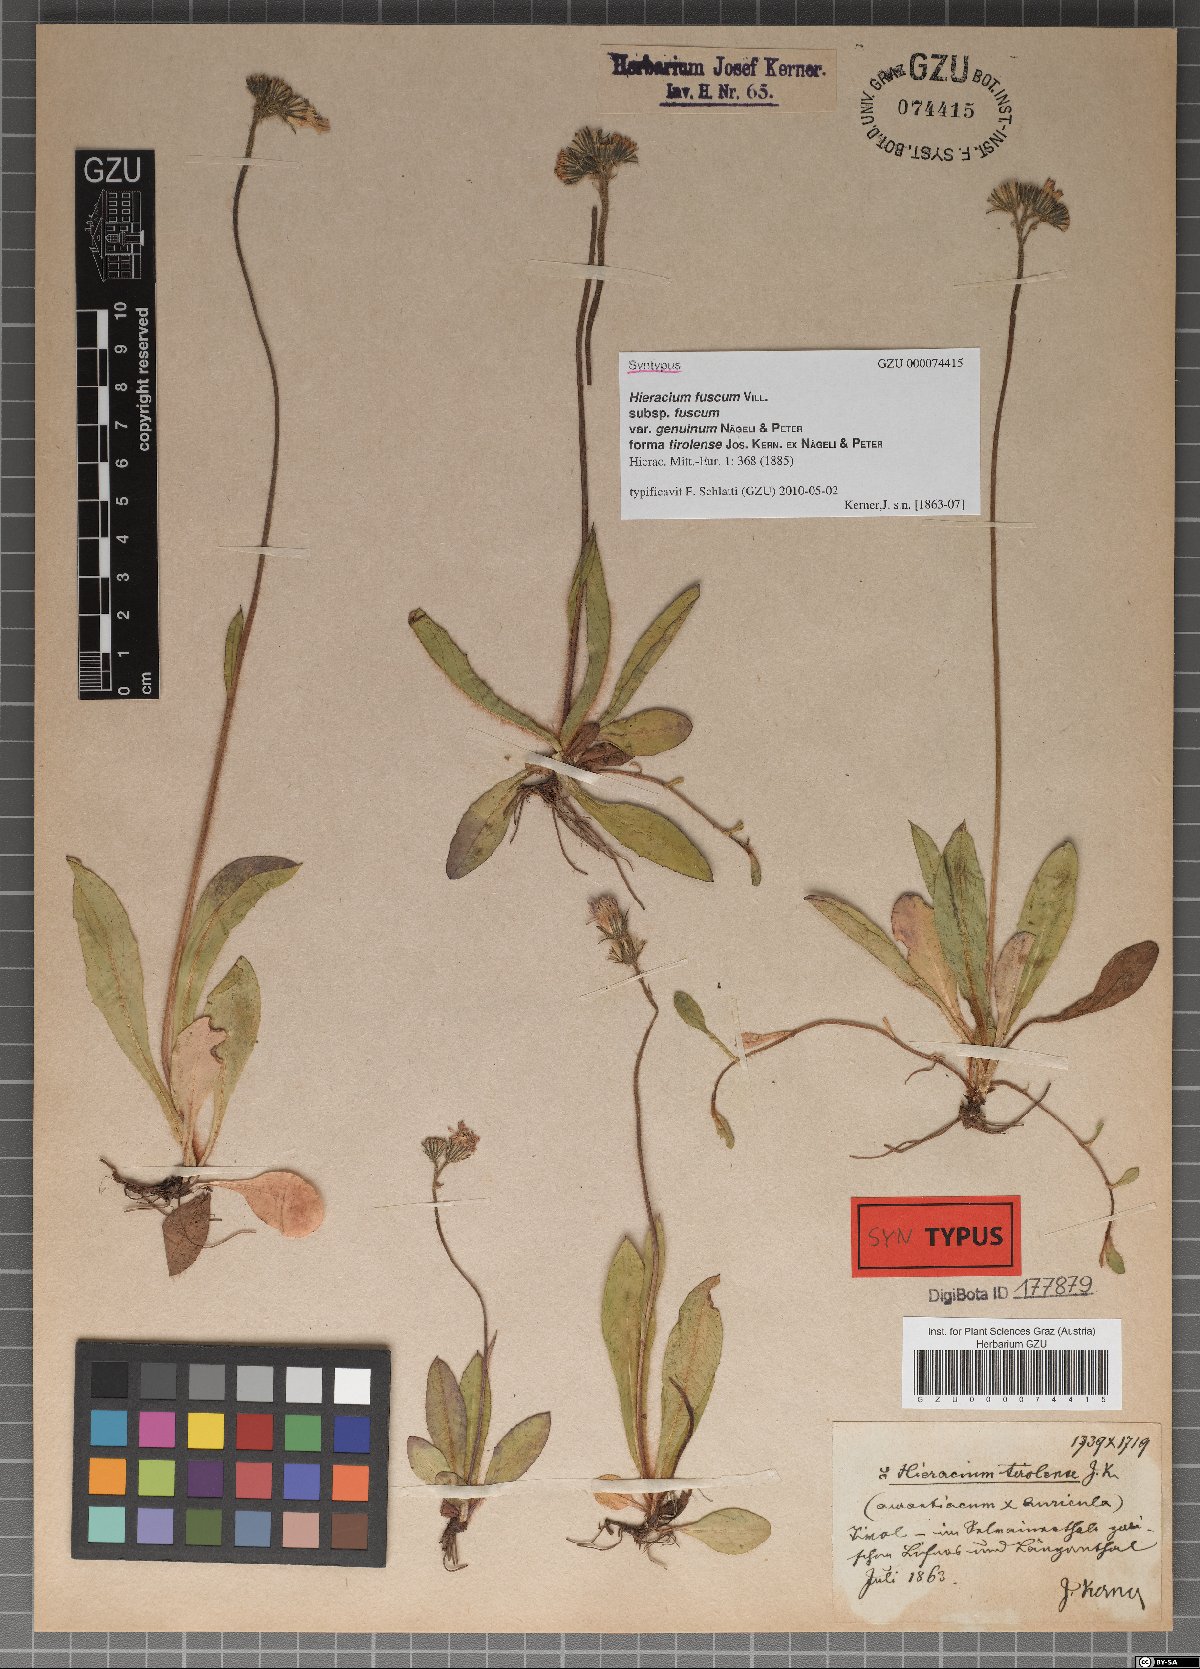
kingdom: Plantae
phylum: Tracheophyta
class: Magnoliopsida
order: Asterales
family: Asteraceae
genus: Pilosella
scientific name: Pilosella fusca
